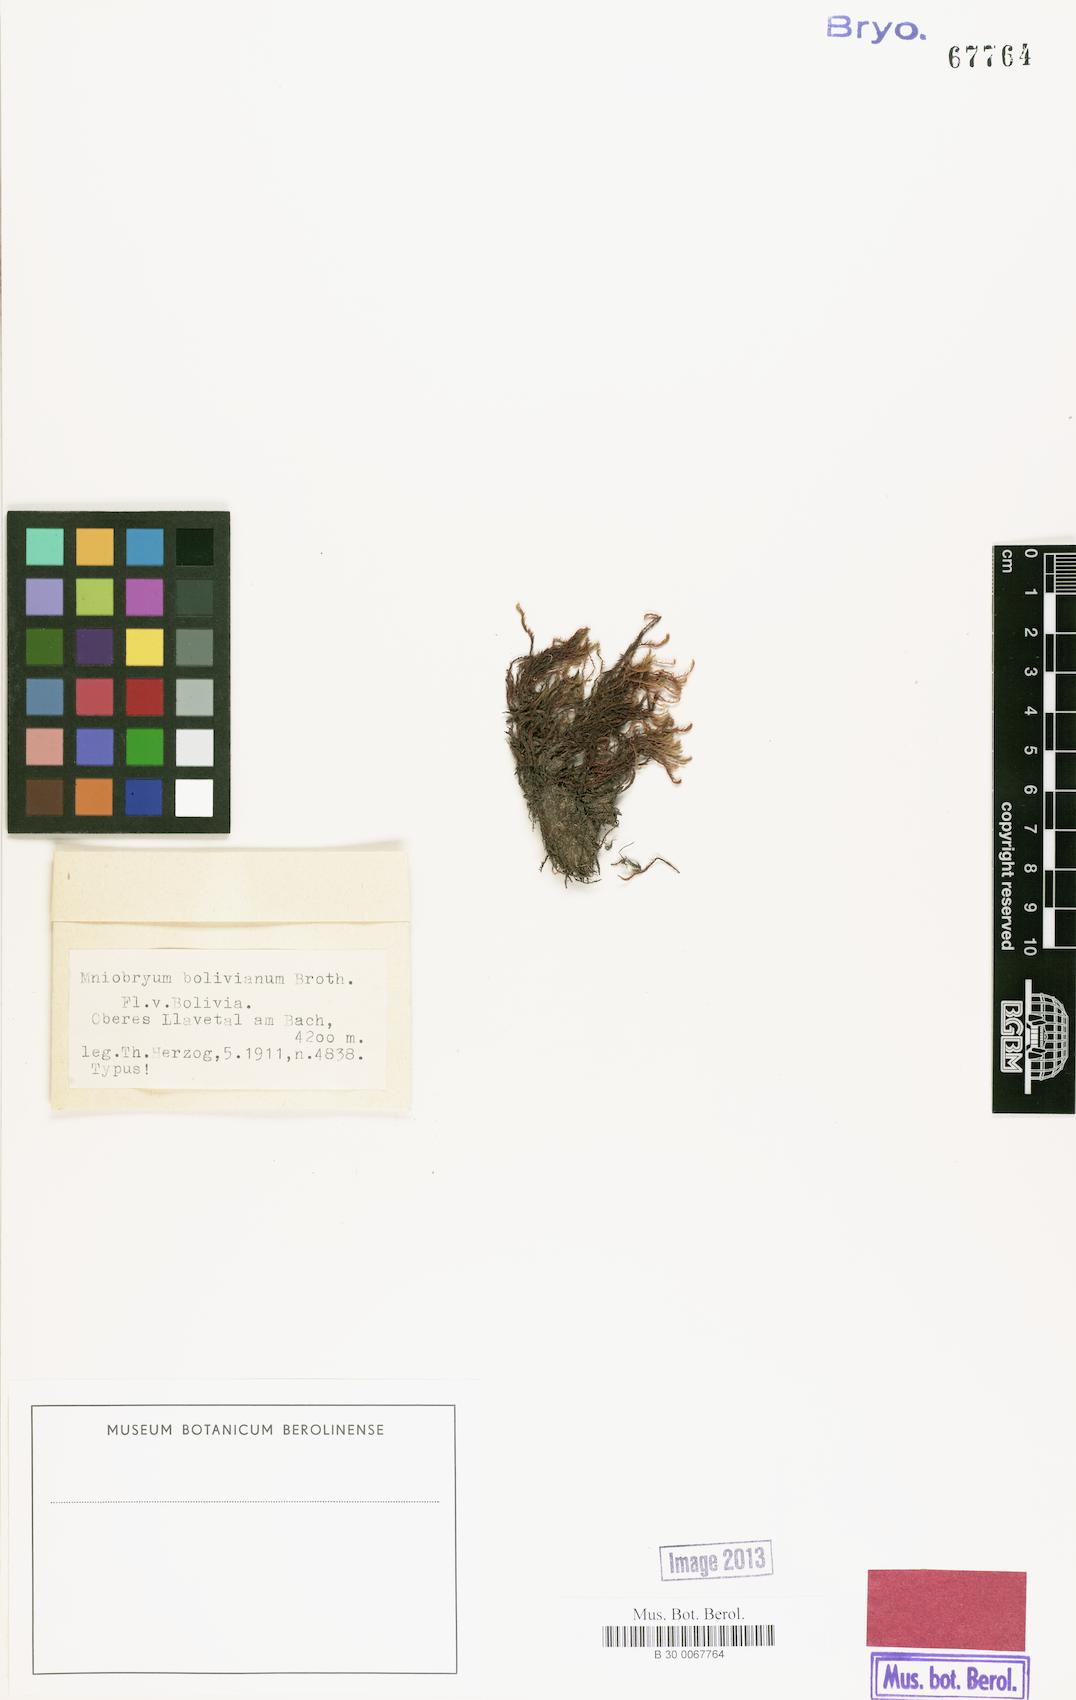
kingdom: Plantae
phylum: Bryophyta
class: Bryopsida
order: Bryales
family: Mniaceae
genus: Pohlia
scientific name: Pohlia wahlenbergii
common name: Wahlenberg's nodding moss
